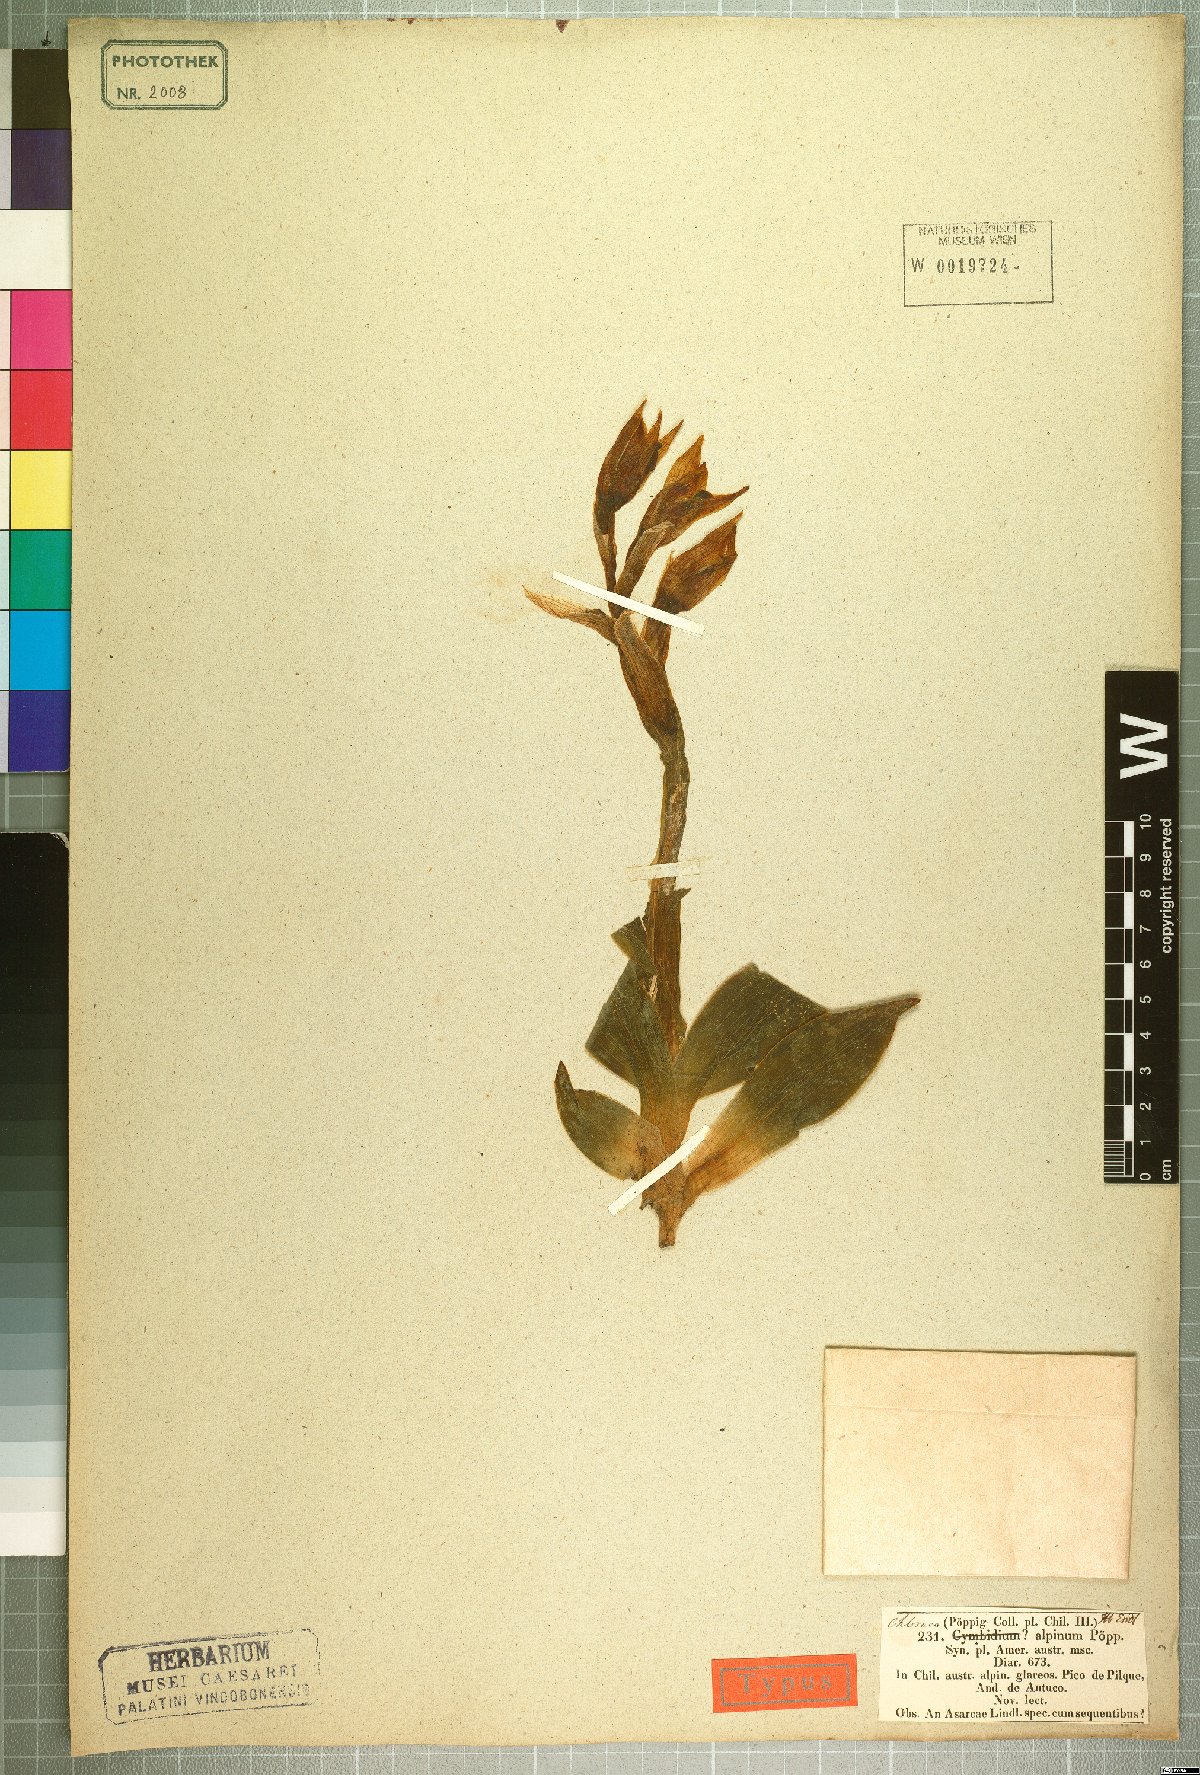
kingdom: Plantae
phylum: Tracheophyta
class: Liliopsida
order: Asparagales
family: Orchidaceae
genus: Chloraea
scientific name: Chloraea alpina
